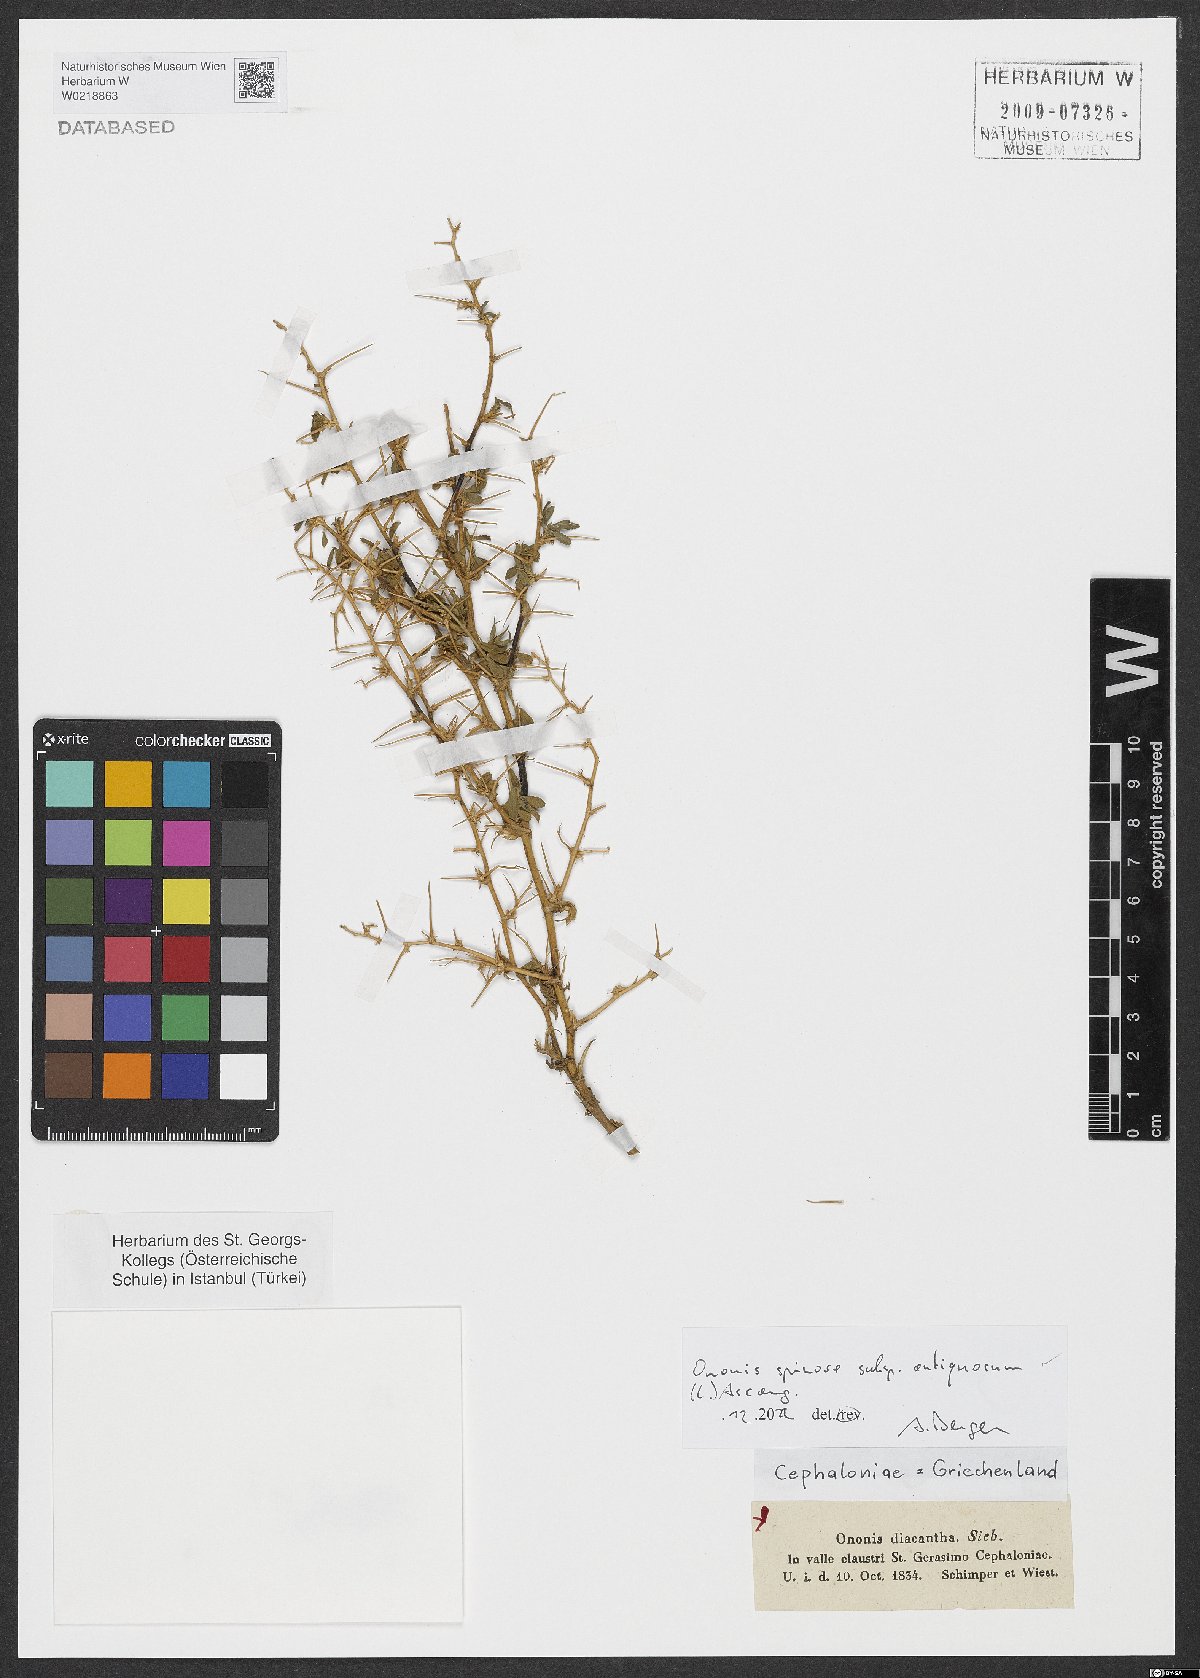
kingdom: Plantae
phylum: Tracheophyta
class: Magnoliopsida
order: Fabales
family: Fabaceae
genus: Ononis
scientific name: Ononis spinosa
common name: Spiny restharrow
